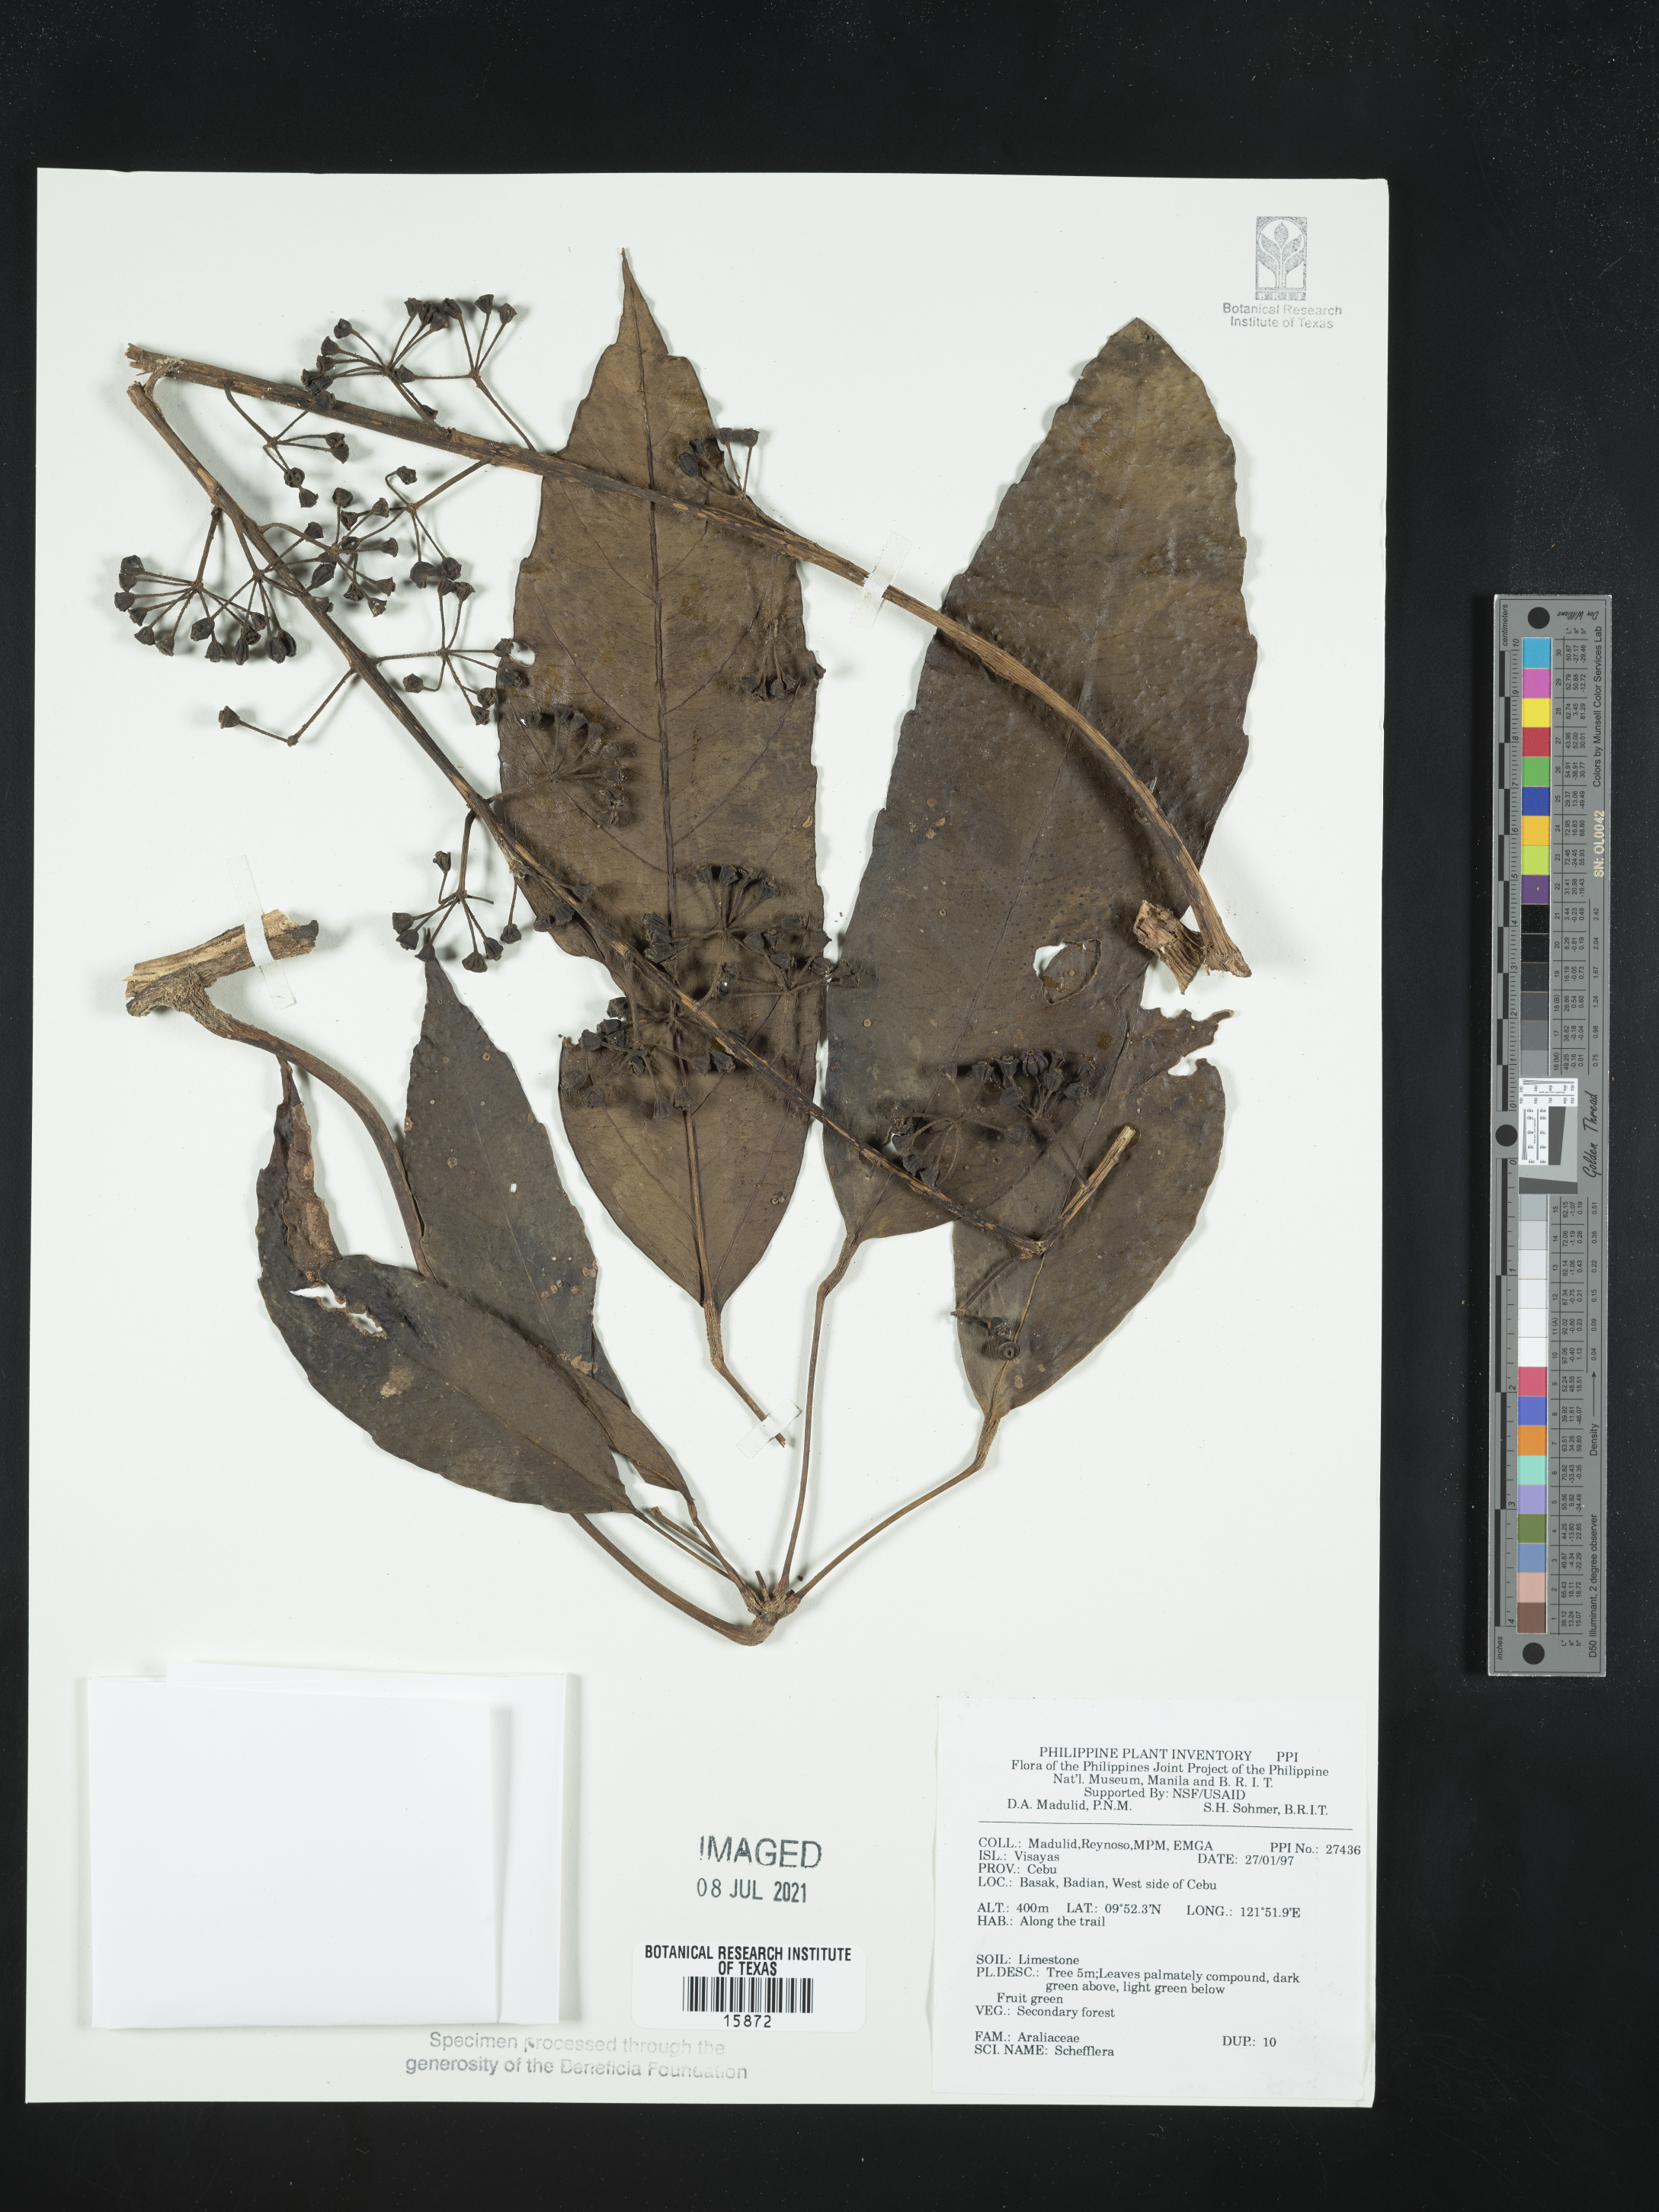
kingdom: Plantae
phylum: Tracheophyta
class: Magnoliopsida
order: Apiales
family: Araliaceae
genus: Schefflera
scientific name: Schefflera
